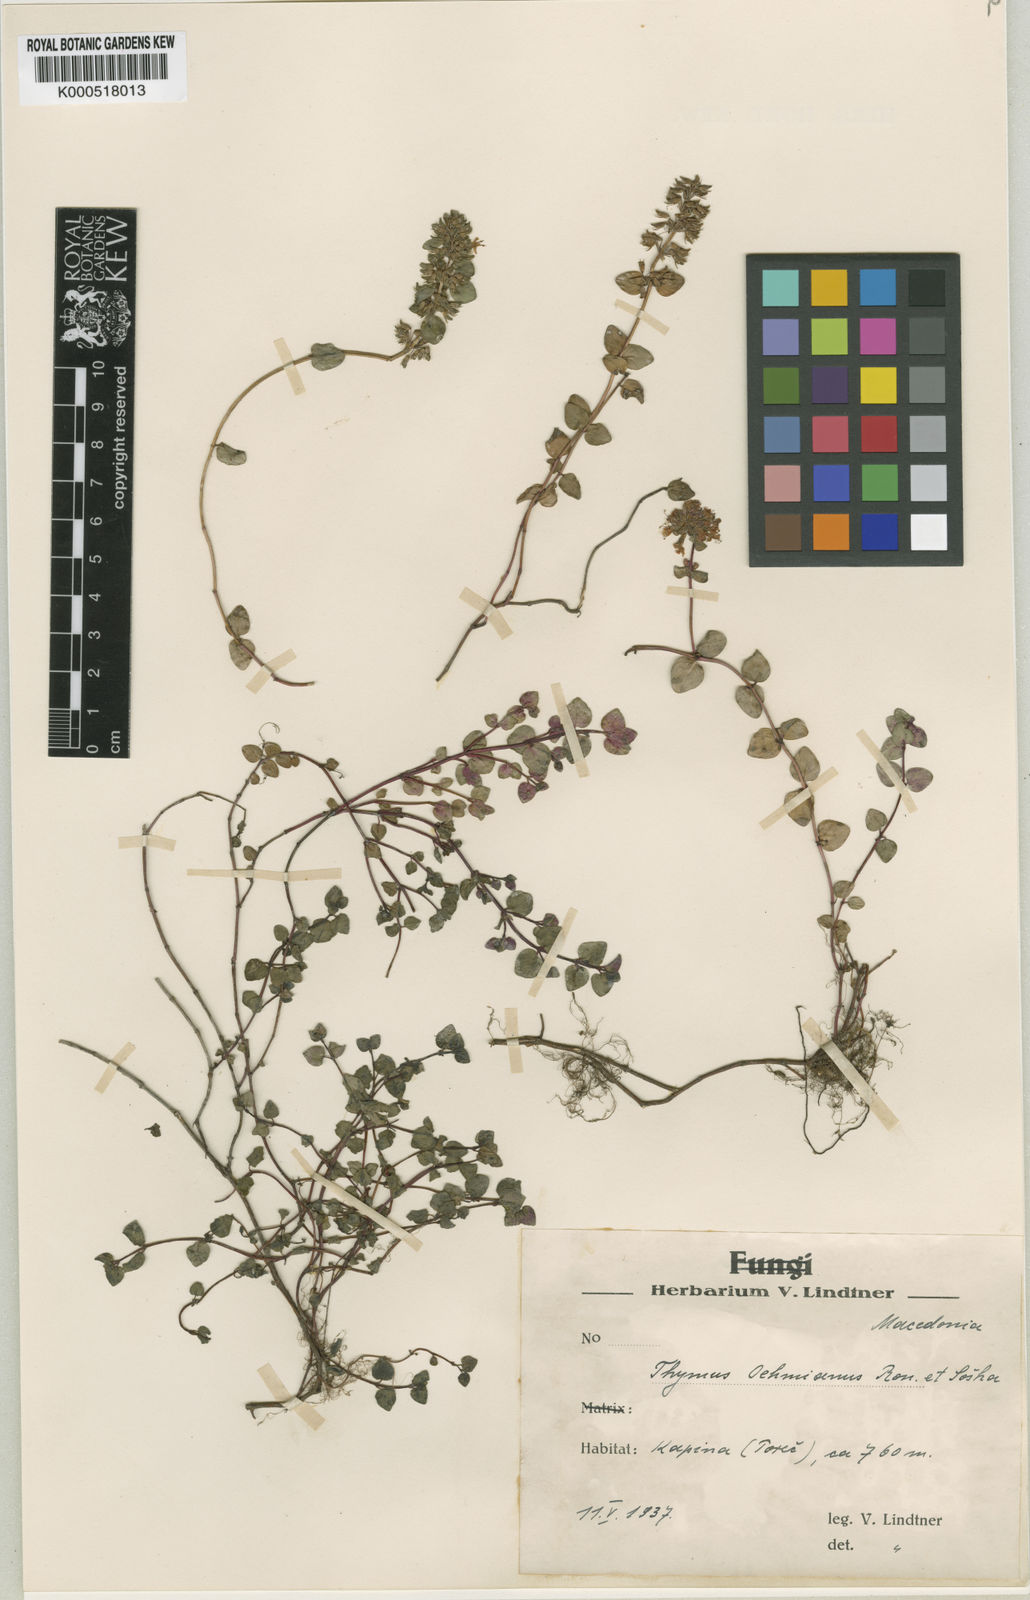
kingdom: Plantae
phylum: Tracheophyta
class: Magnoliopsida
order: Lamiales
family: Lamiaceae
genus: Thymus
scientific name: Thymus oehmianus
